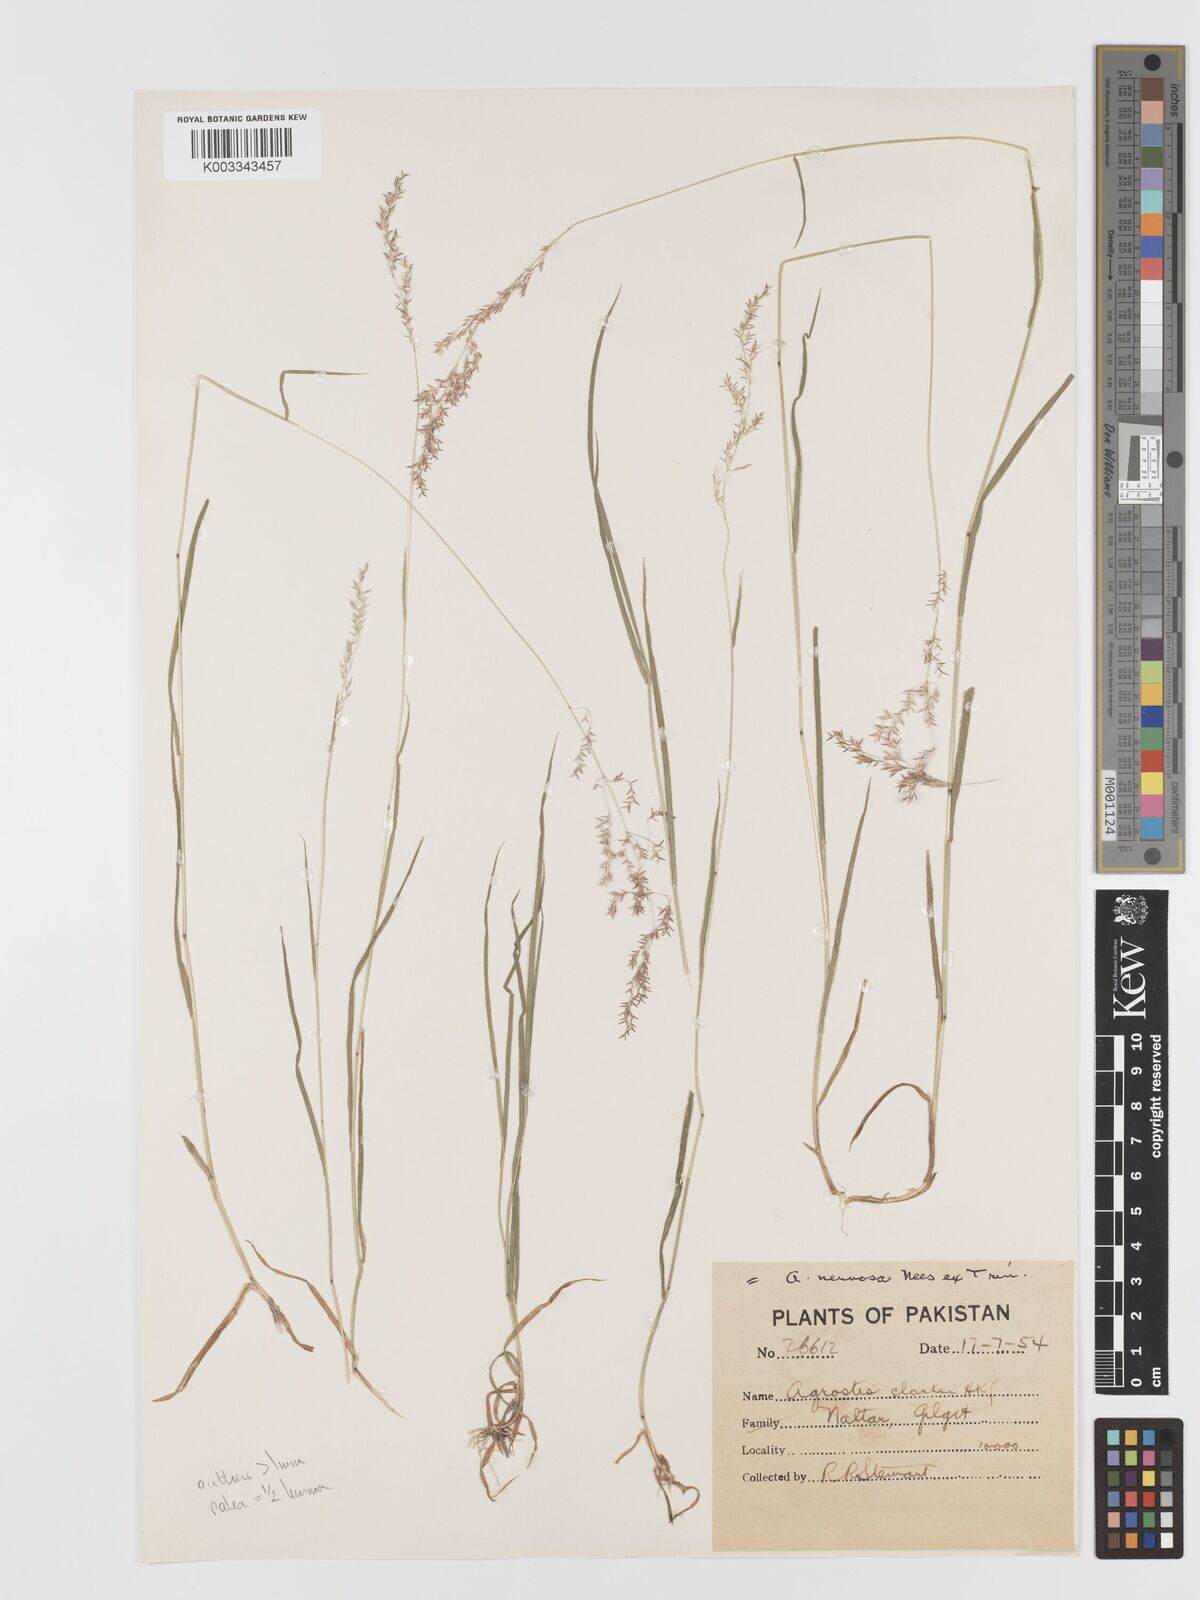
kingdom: Plantae
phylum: Tracheophyta
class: Liliopsida
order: Poales
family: Poaceae
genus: Agrostis
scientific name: Agrostis stolonifera
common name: Creeping bentgrass
